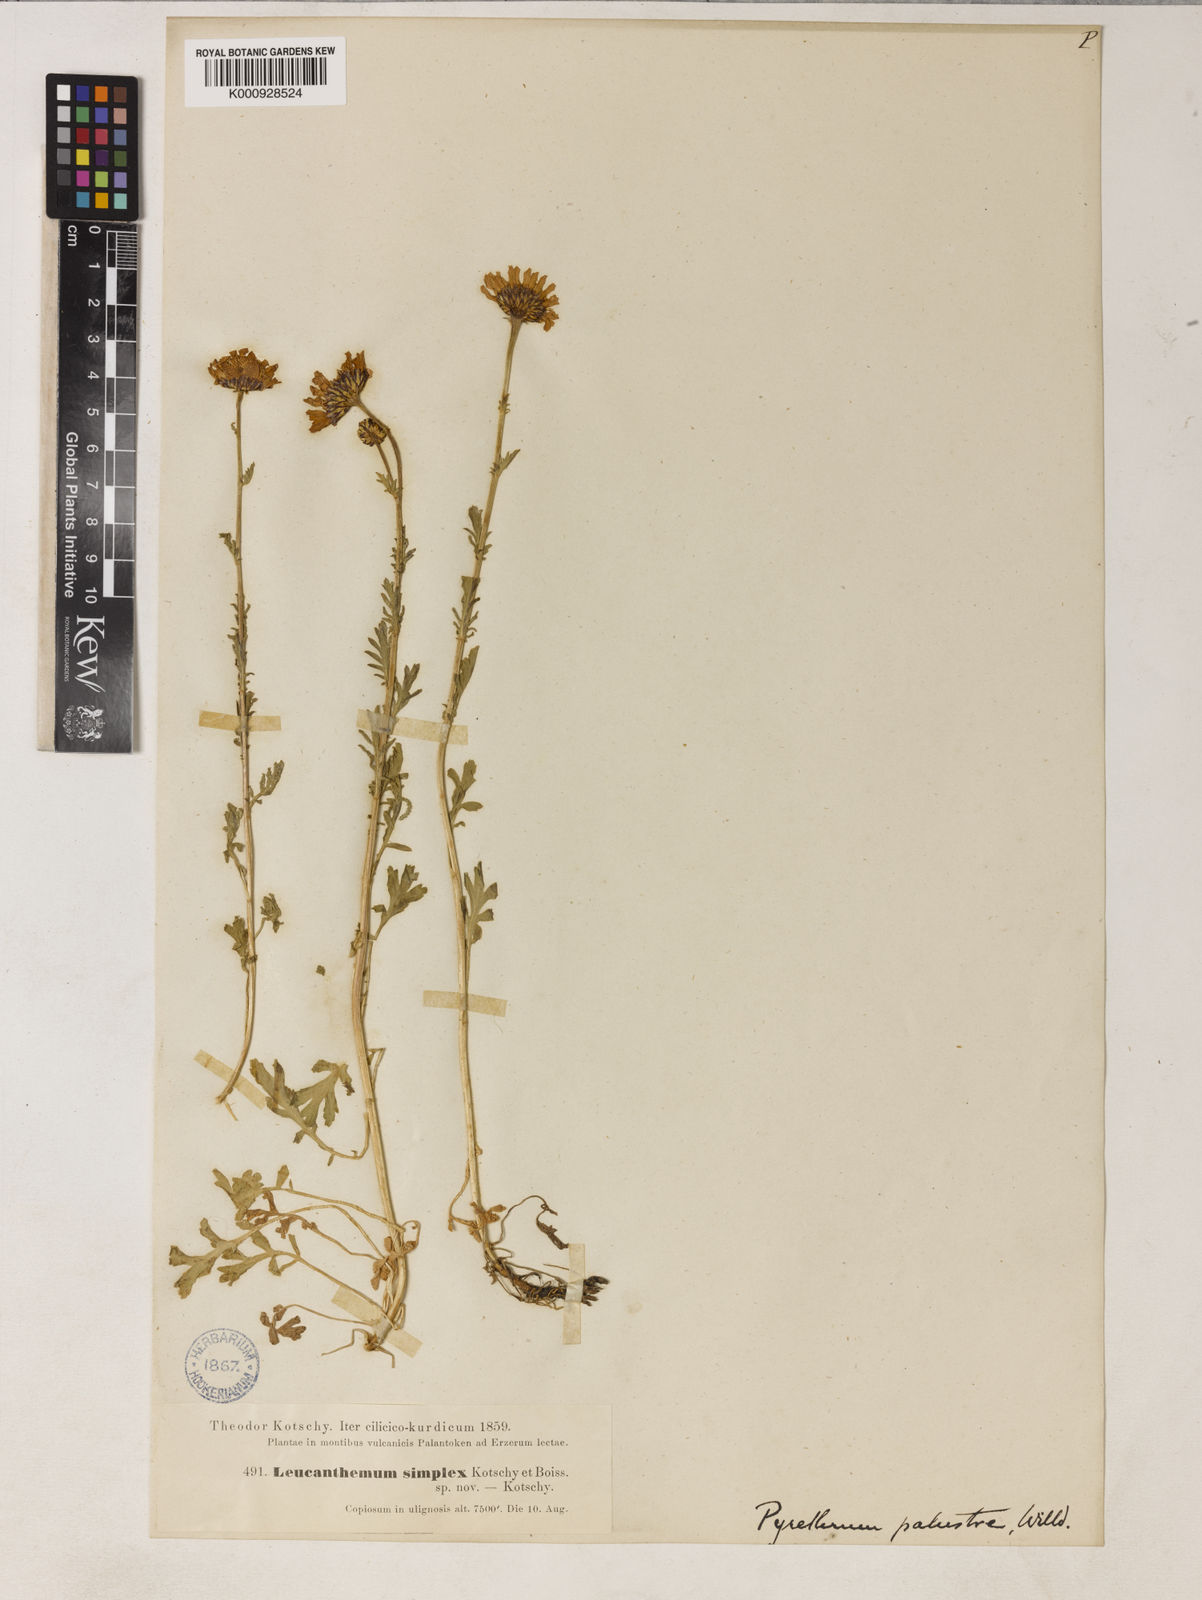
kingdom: Plantae
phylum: Tracheophyta
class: Magnoliopsida
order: Asterales
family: Asteraceae
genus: Tanacetum
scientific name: Tanacetum punctatum
